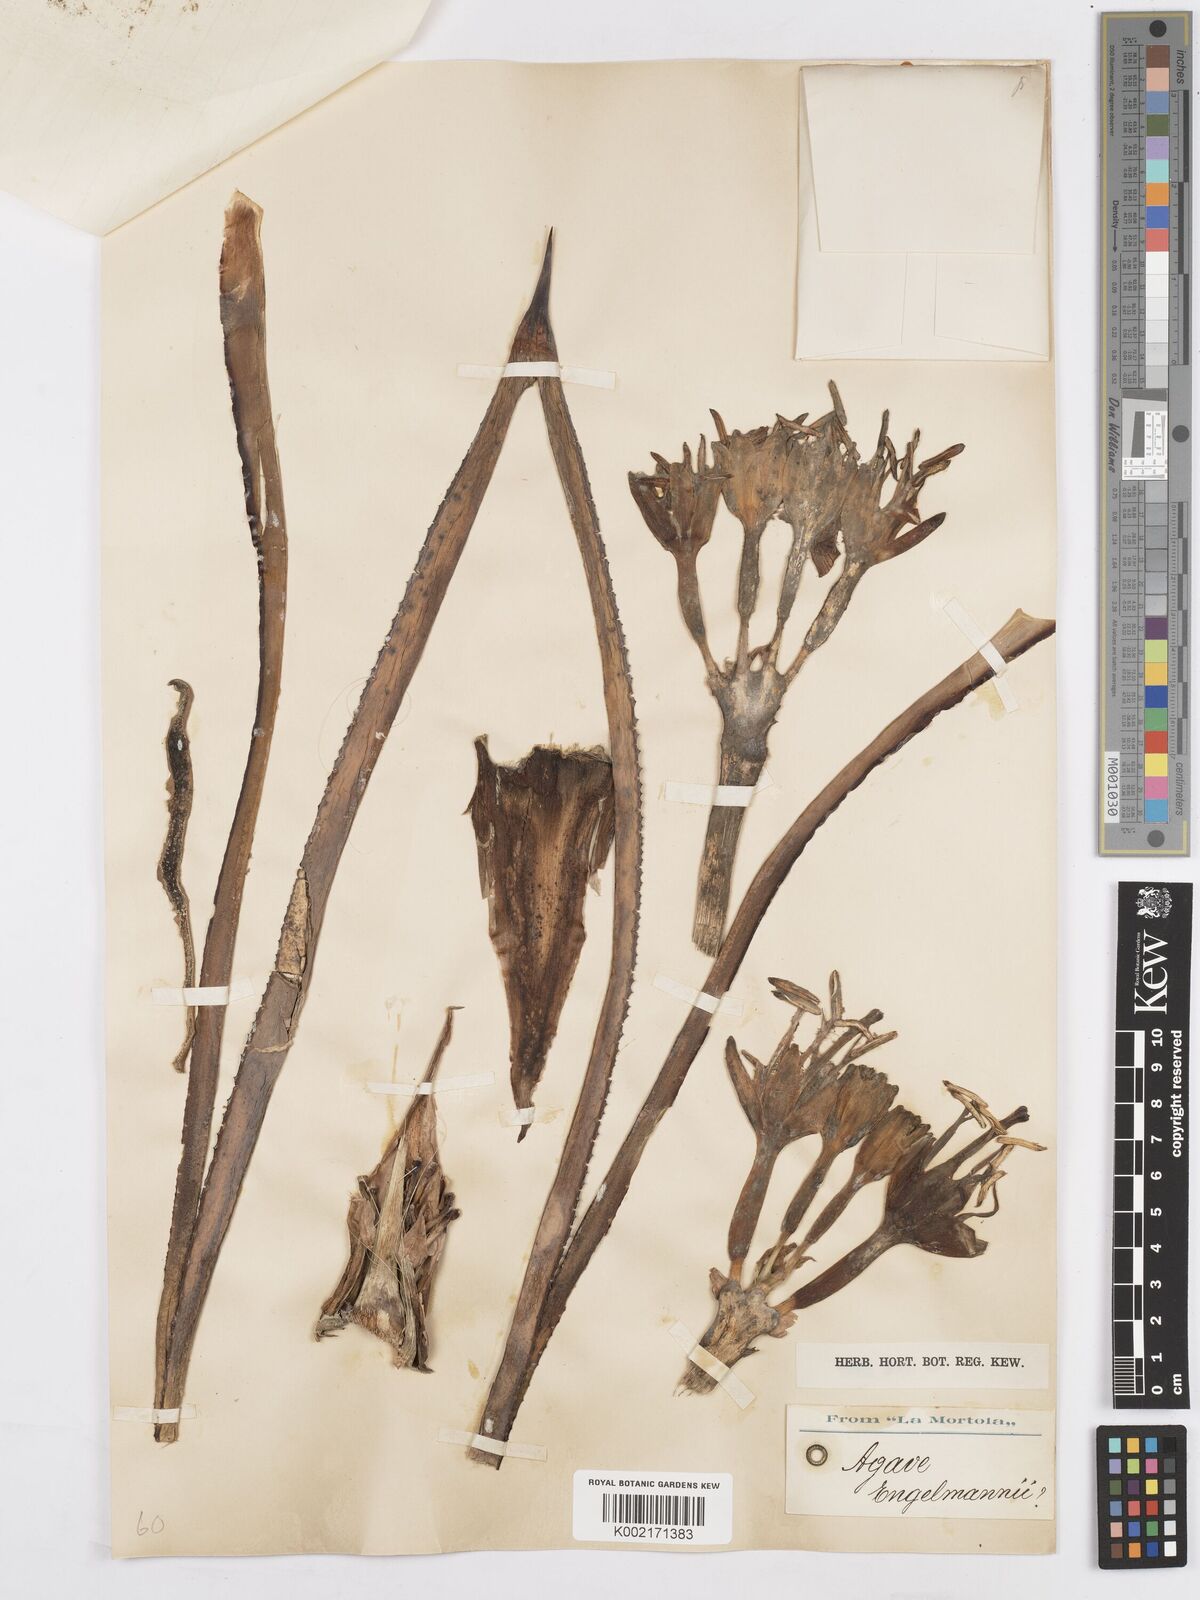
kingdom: Plantae
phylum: Tracheophyta
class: Liliopsida
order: Asparagales
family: Asparagaceae
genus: Agave
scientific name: Agave polyacantha
